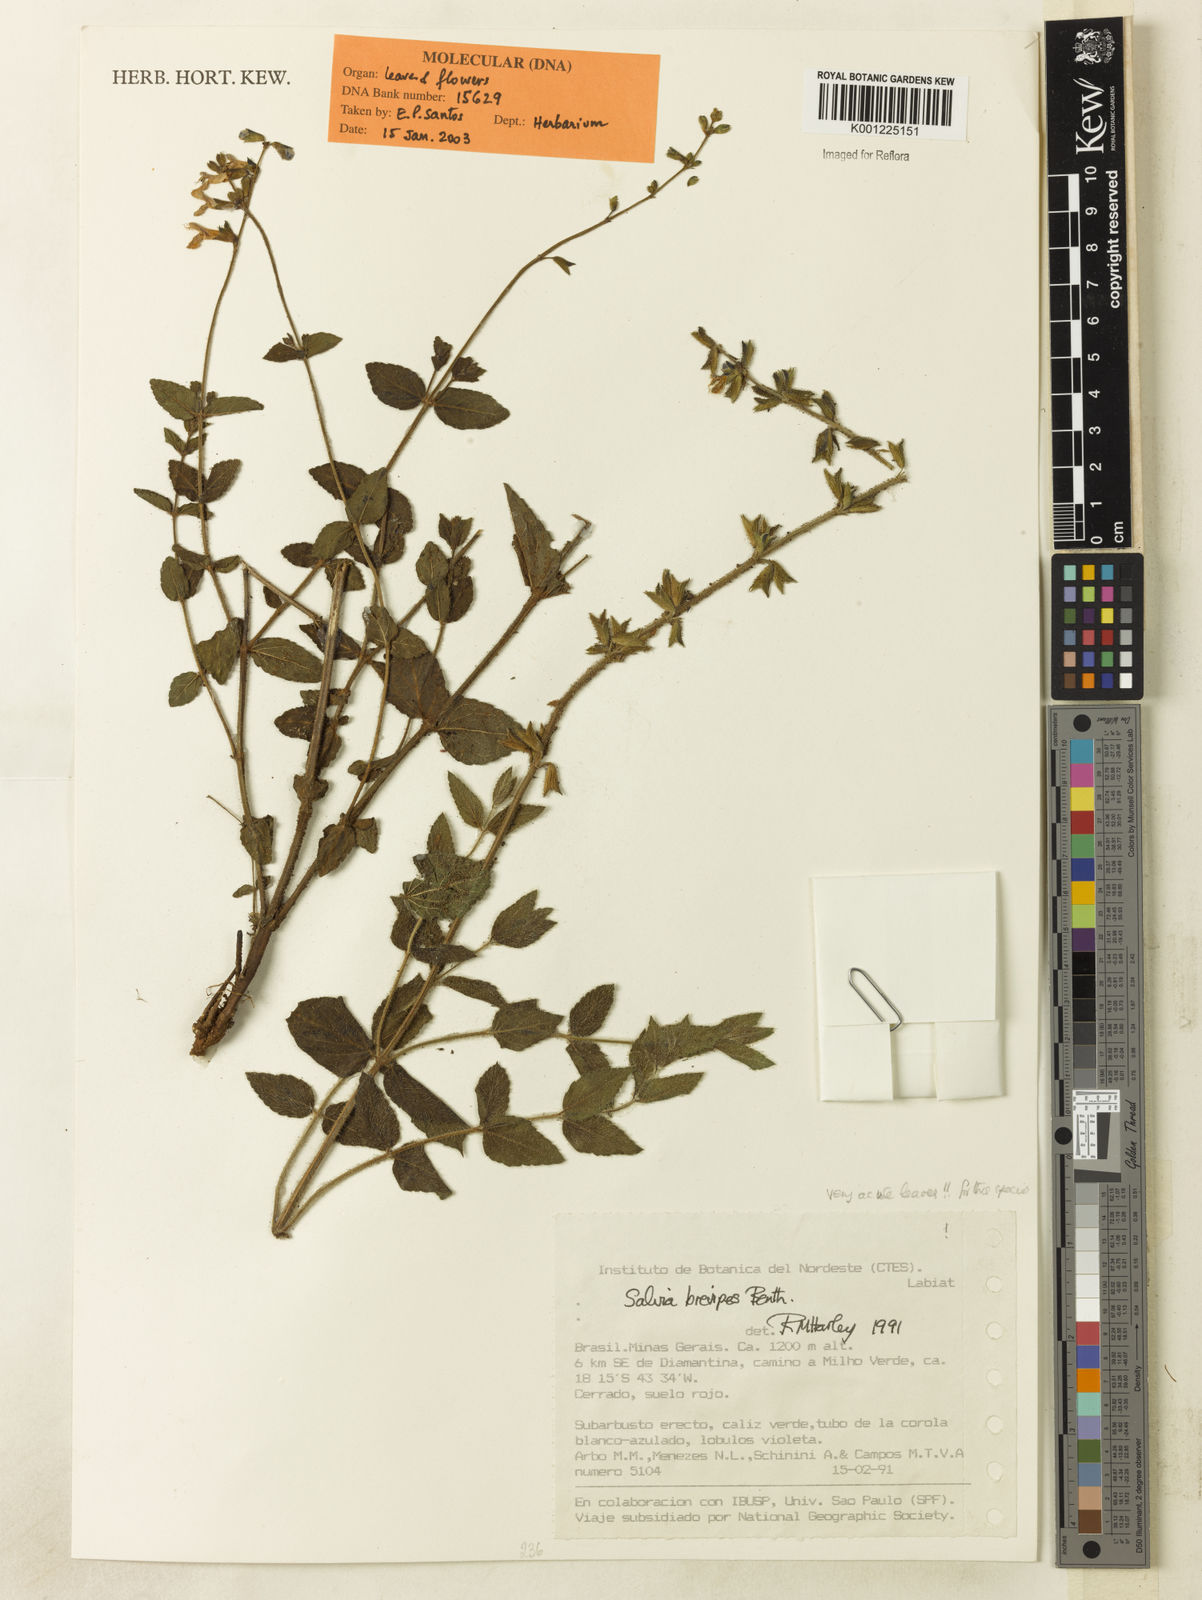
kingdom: Plantae
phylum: Tracheophyta
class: Magnoliopsida
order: Lamiales
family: Lamiaceae
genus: Salvia
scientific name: Salvia brevipes
